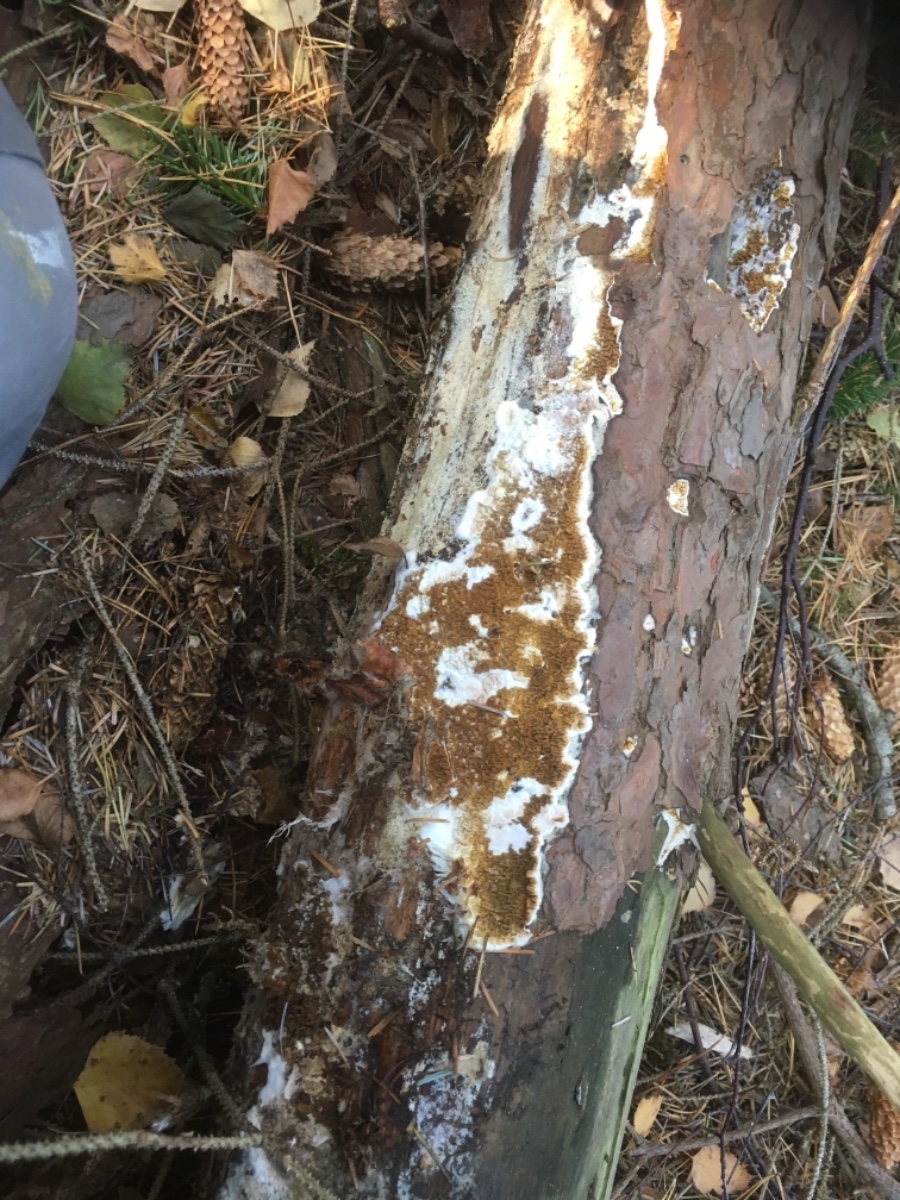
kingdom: Fungi
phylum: Basidiomycota
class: Agaricomycetes
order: Boletales
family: Serpulaceae
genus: Serpula
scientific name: Serpula himantioides
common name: tyndkødet hussvamp
